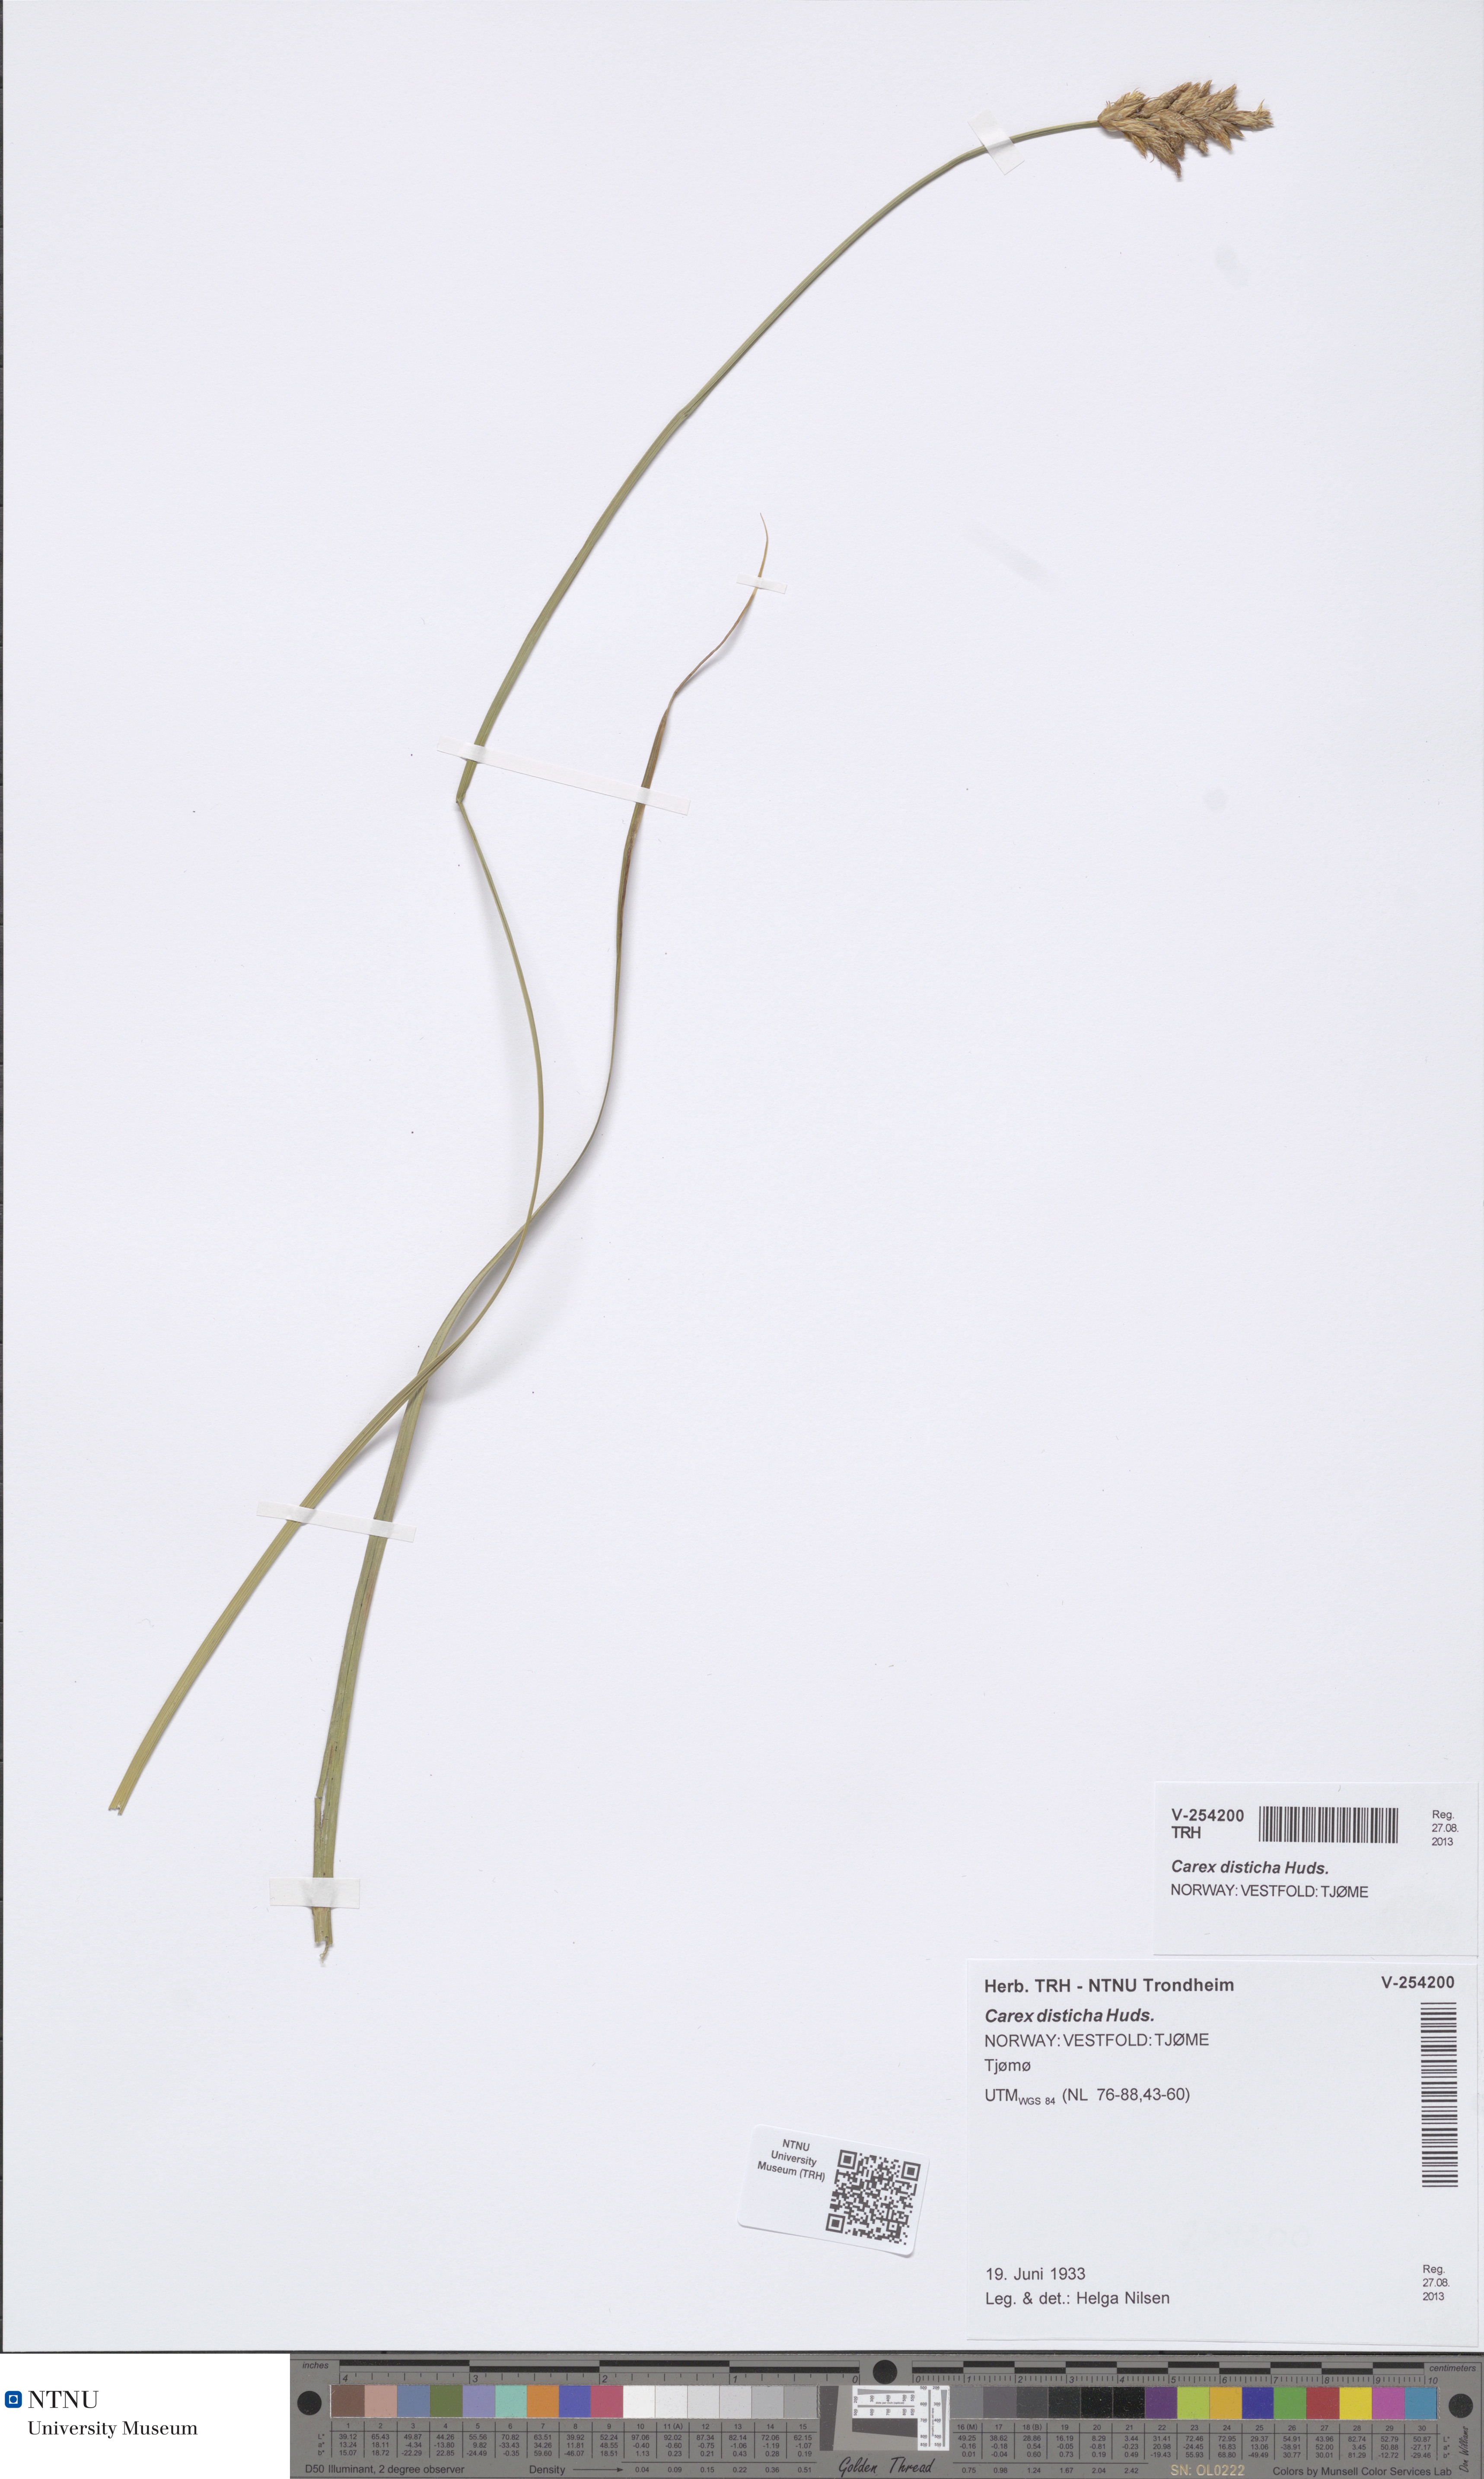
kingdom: Plantae
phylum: Tracheophyta
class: Liliopsida
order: Poales
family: Cyperaceae
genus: Carex
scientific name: Carex disticha
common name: Brown sedge
